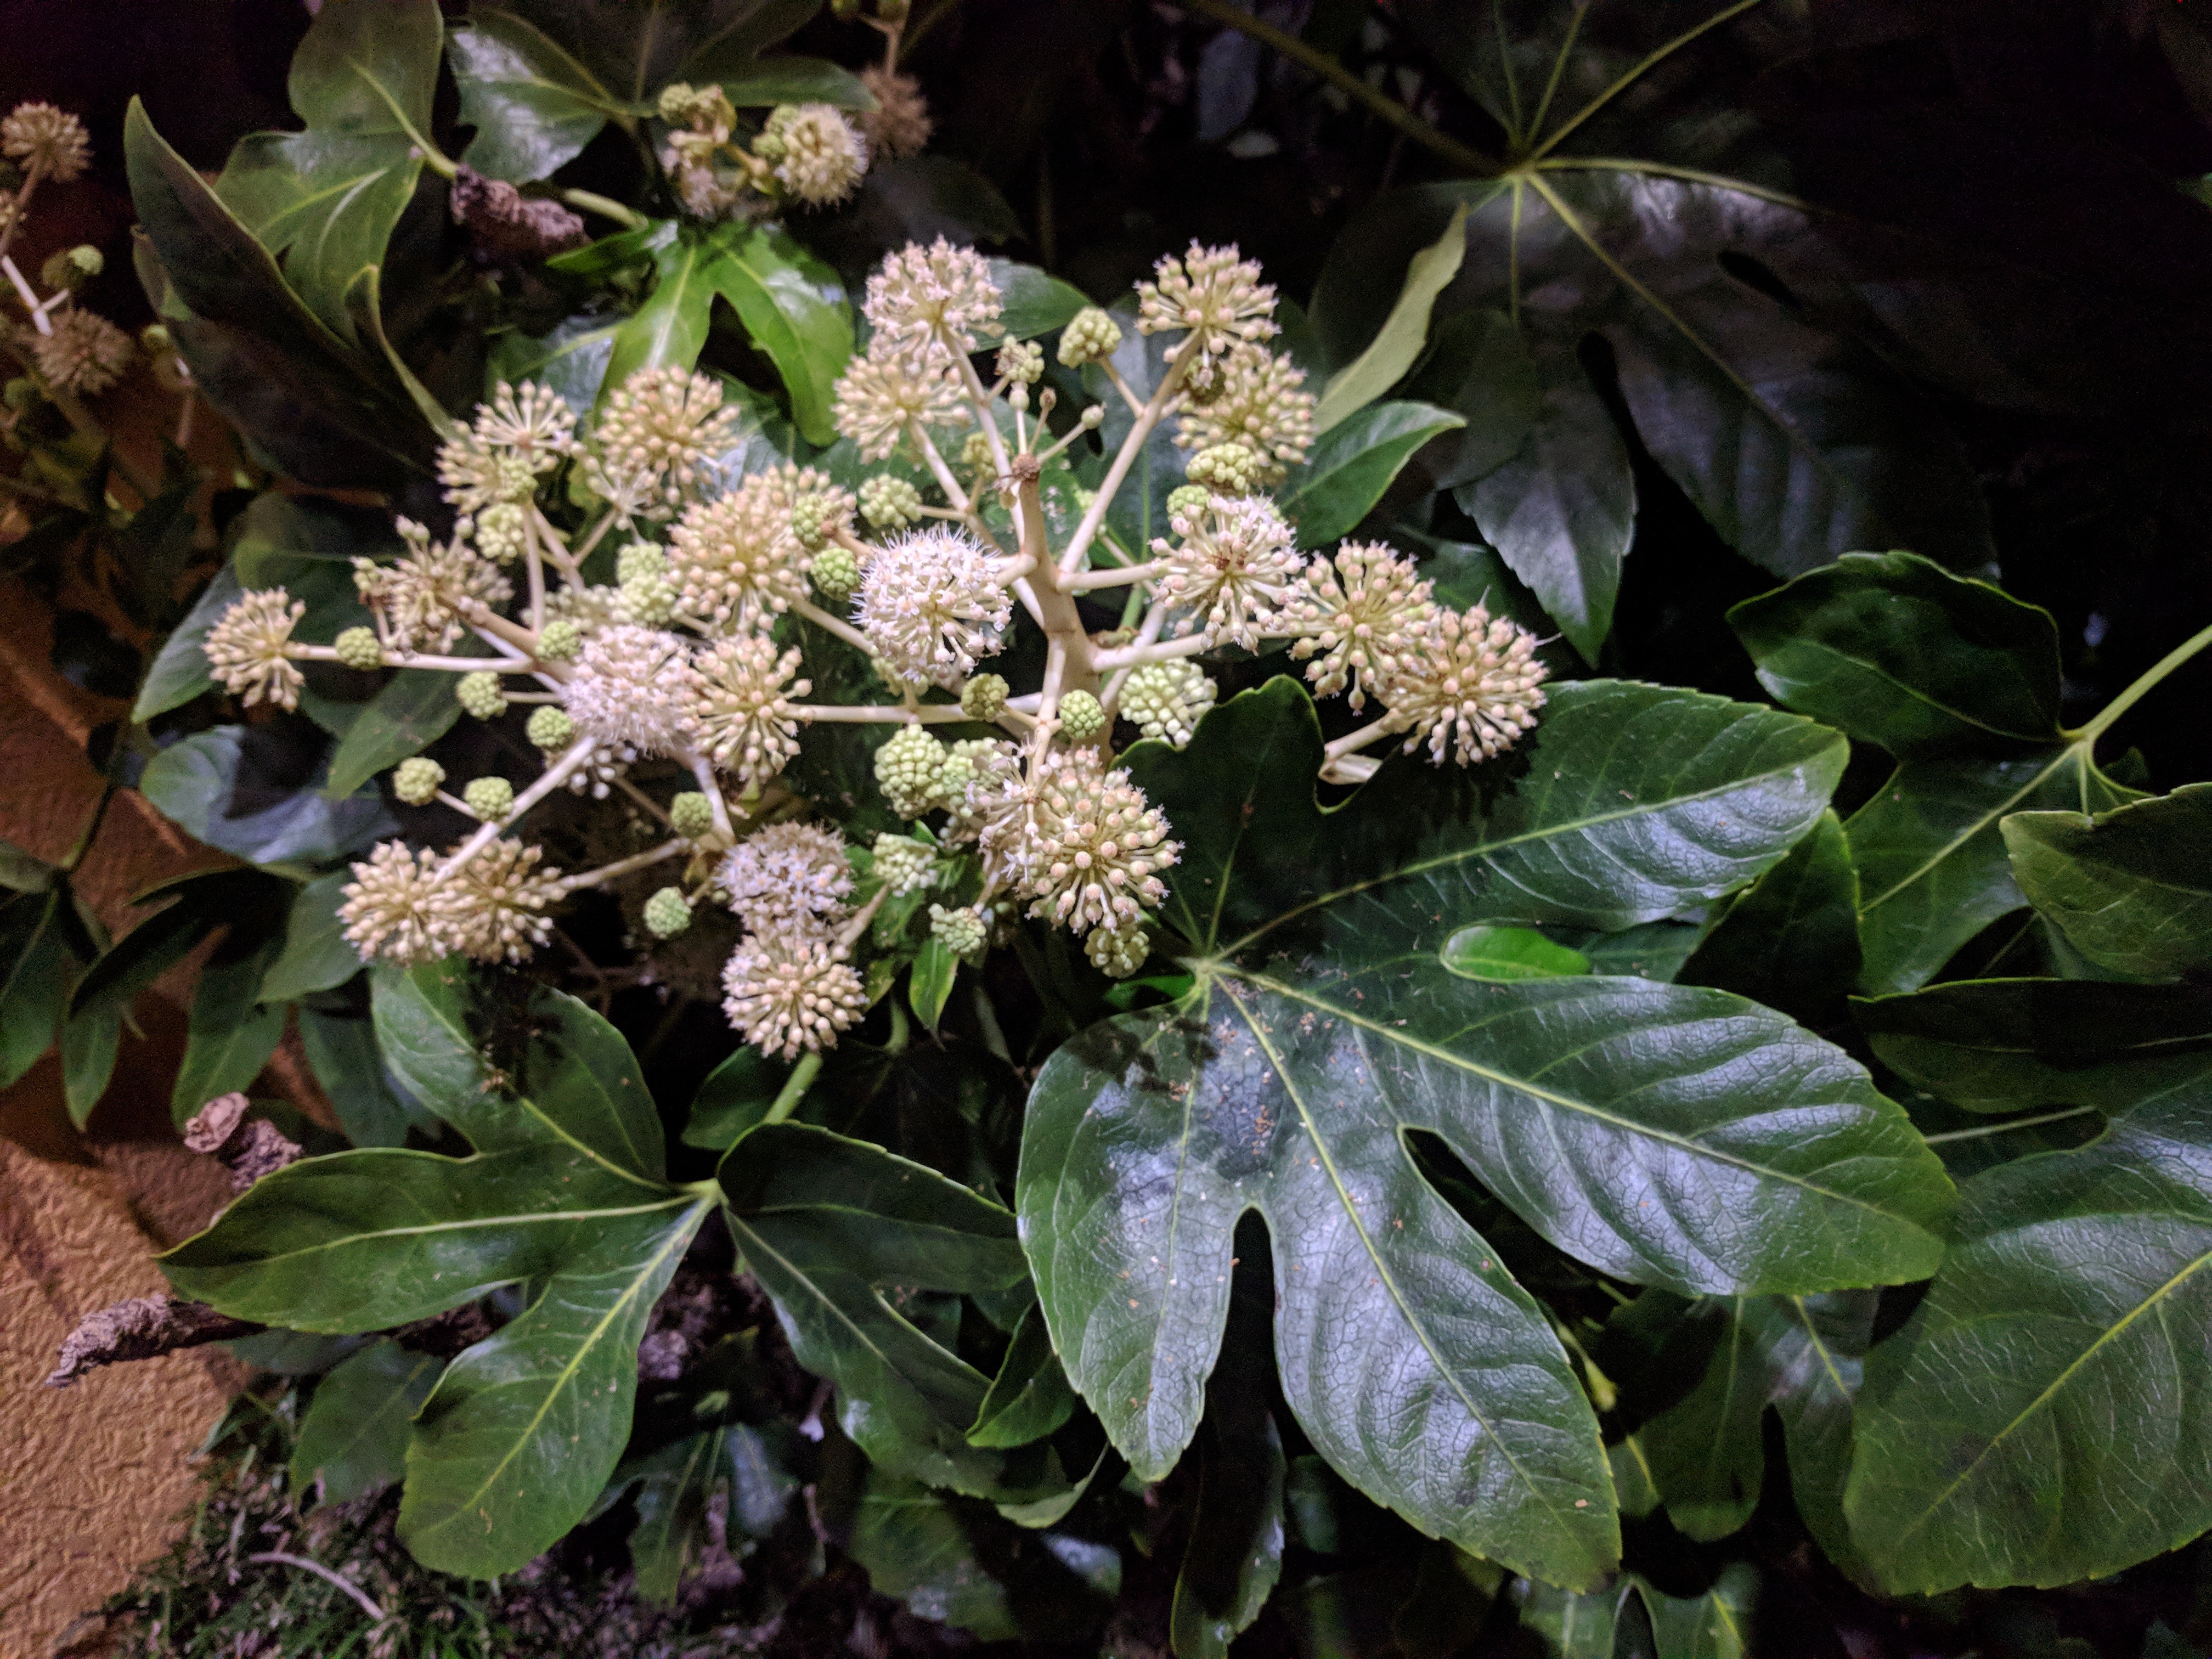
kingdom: Plantae
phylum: Tracheophyta
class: Magnoliopsida
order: Apiales
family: Araliaceae
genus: Fatsia
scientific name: Fatsia japonica
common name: Fatsia
